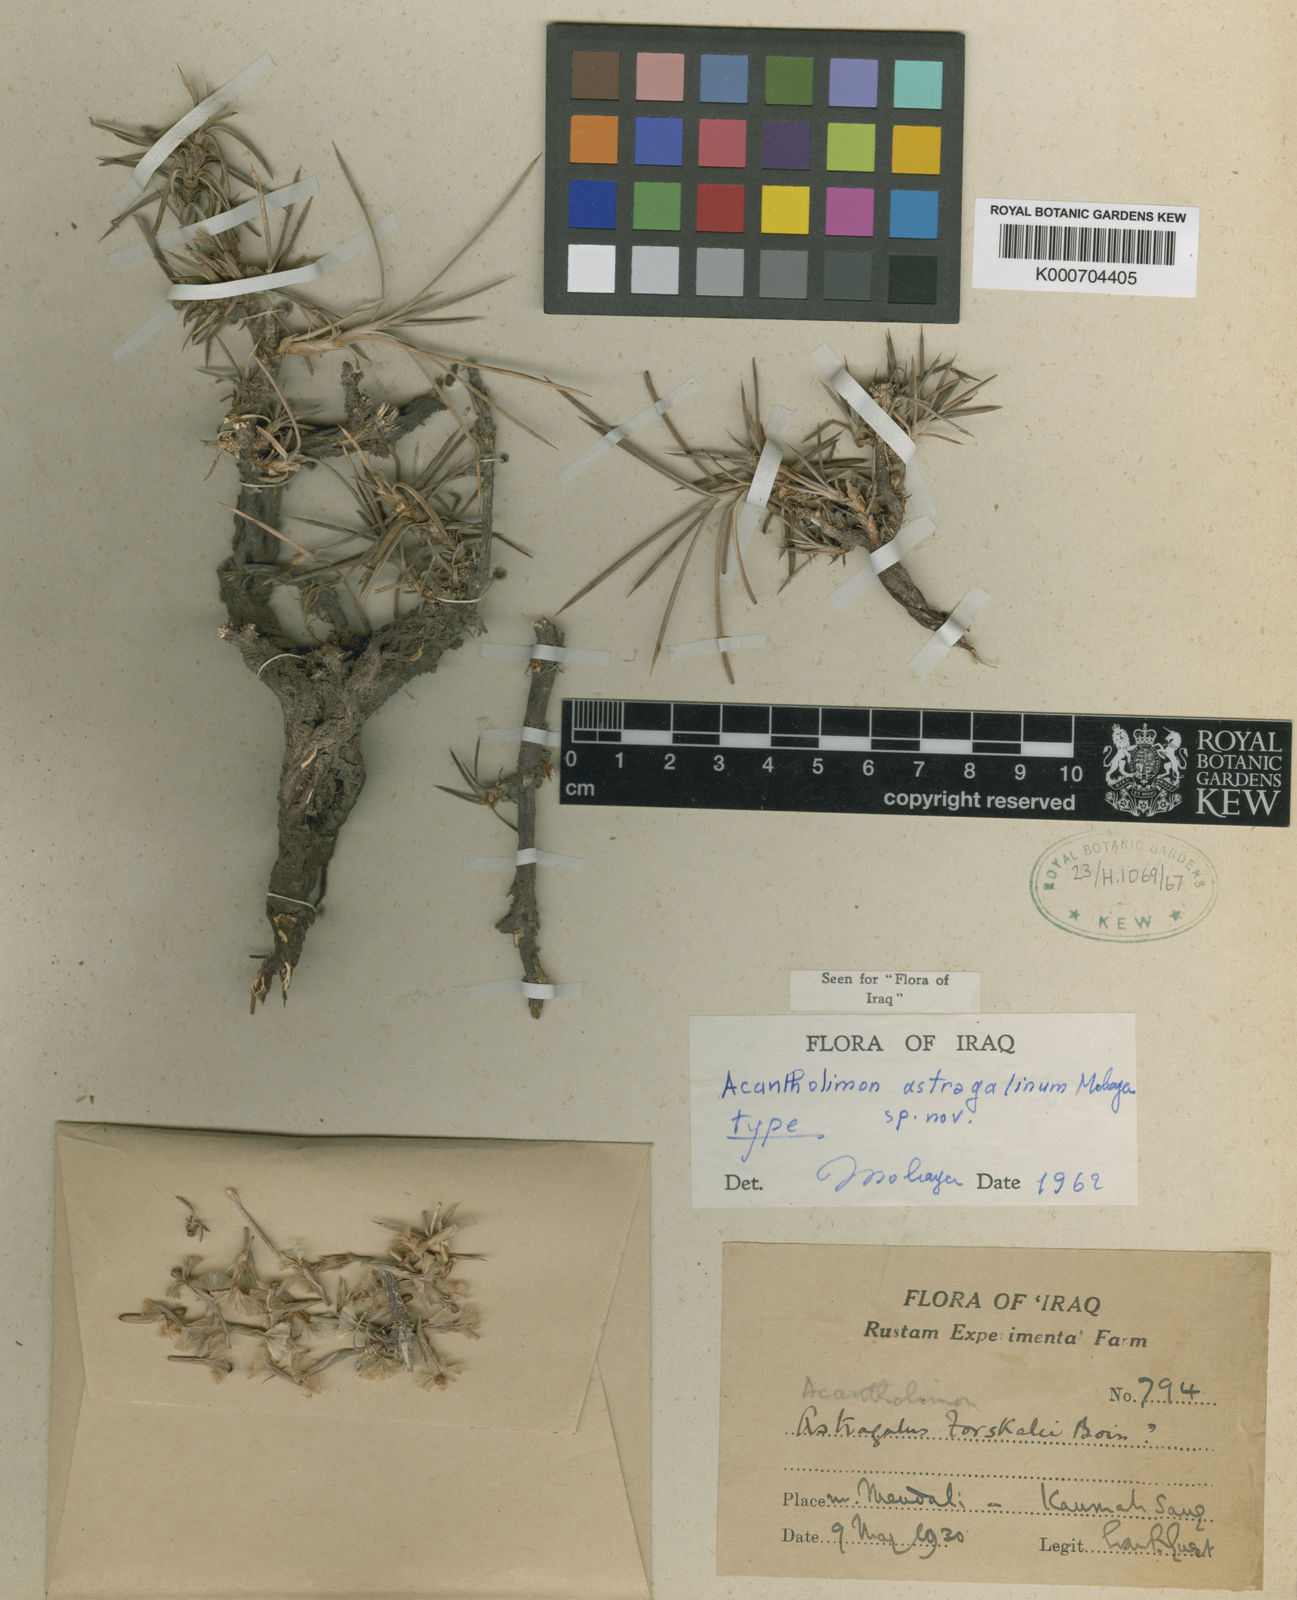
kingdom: Plantae
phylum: Tracheophyta
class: Magnoliopsida
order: Caryophyllales
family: Plumbaginaceae
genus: Acantholimon
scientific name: Acantholimon astragalinum
